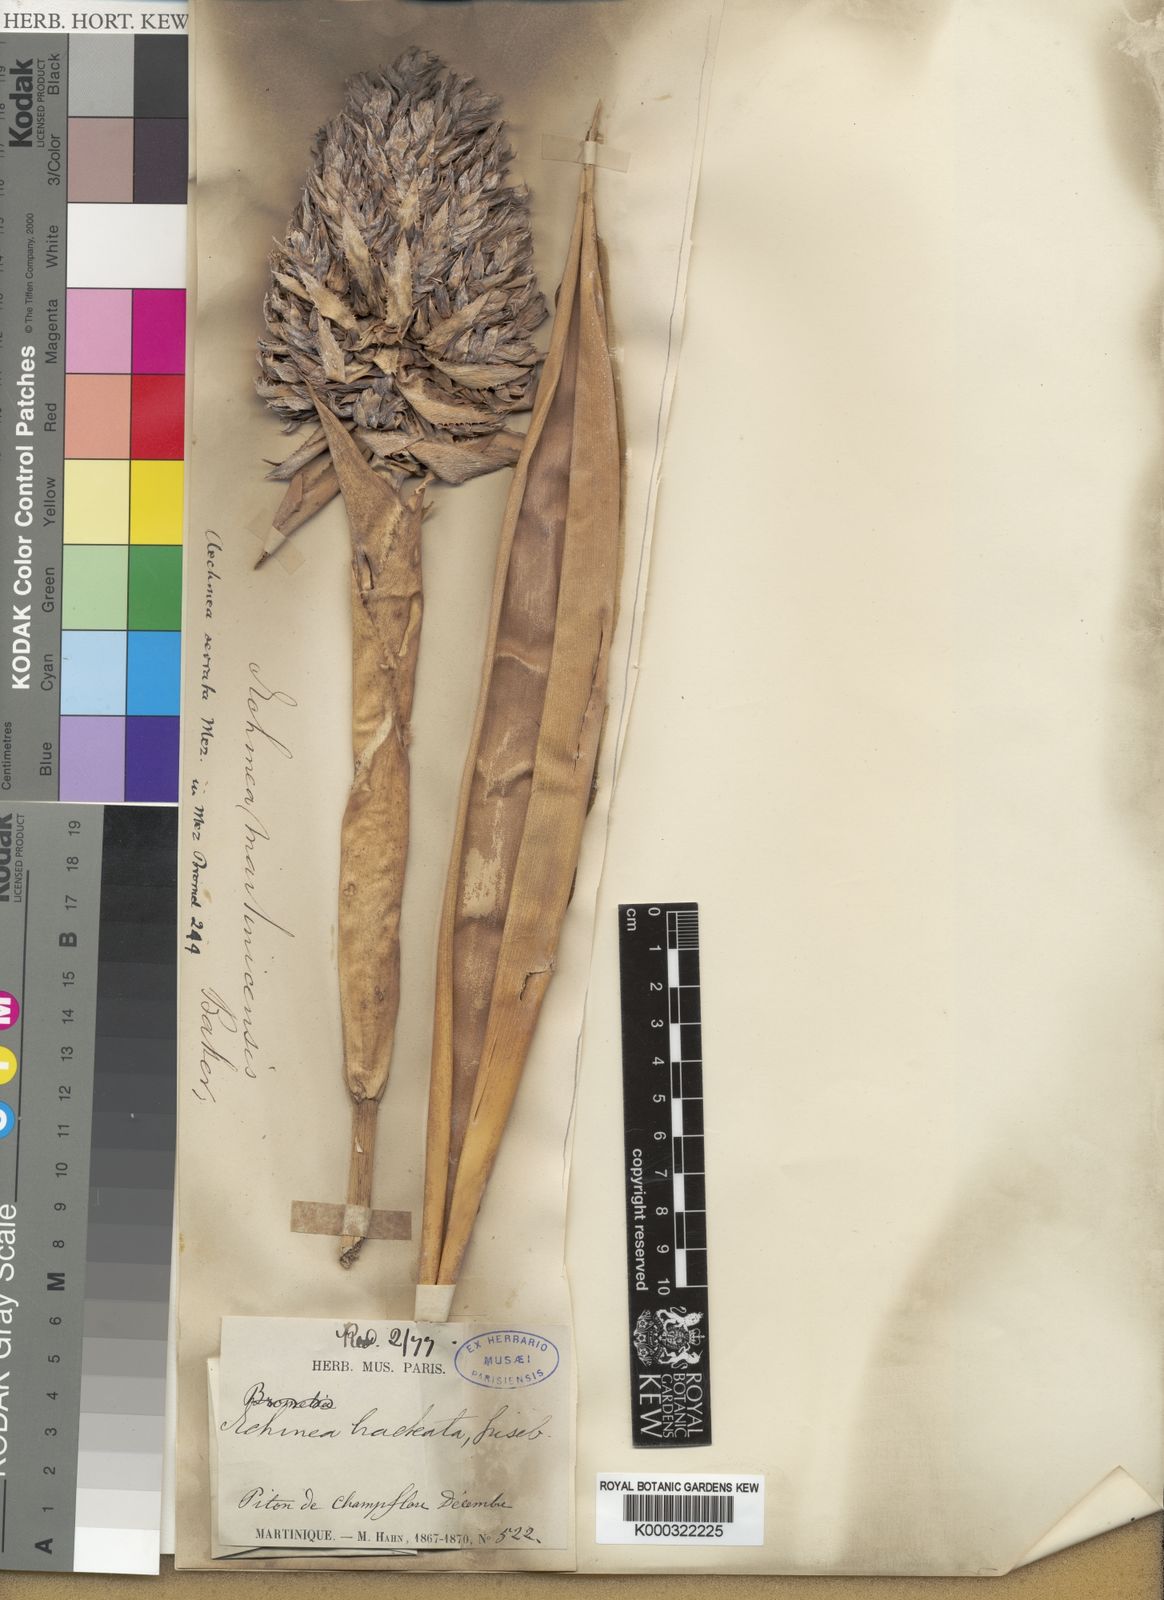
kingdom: Plantae
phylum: Tracheophyta
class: Liliopsida
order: Poales
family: Bromeliaceae
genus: Aechmea
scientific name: Aechmea serrata
